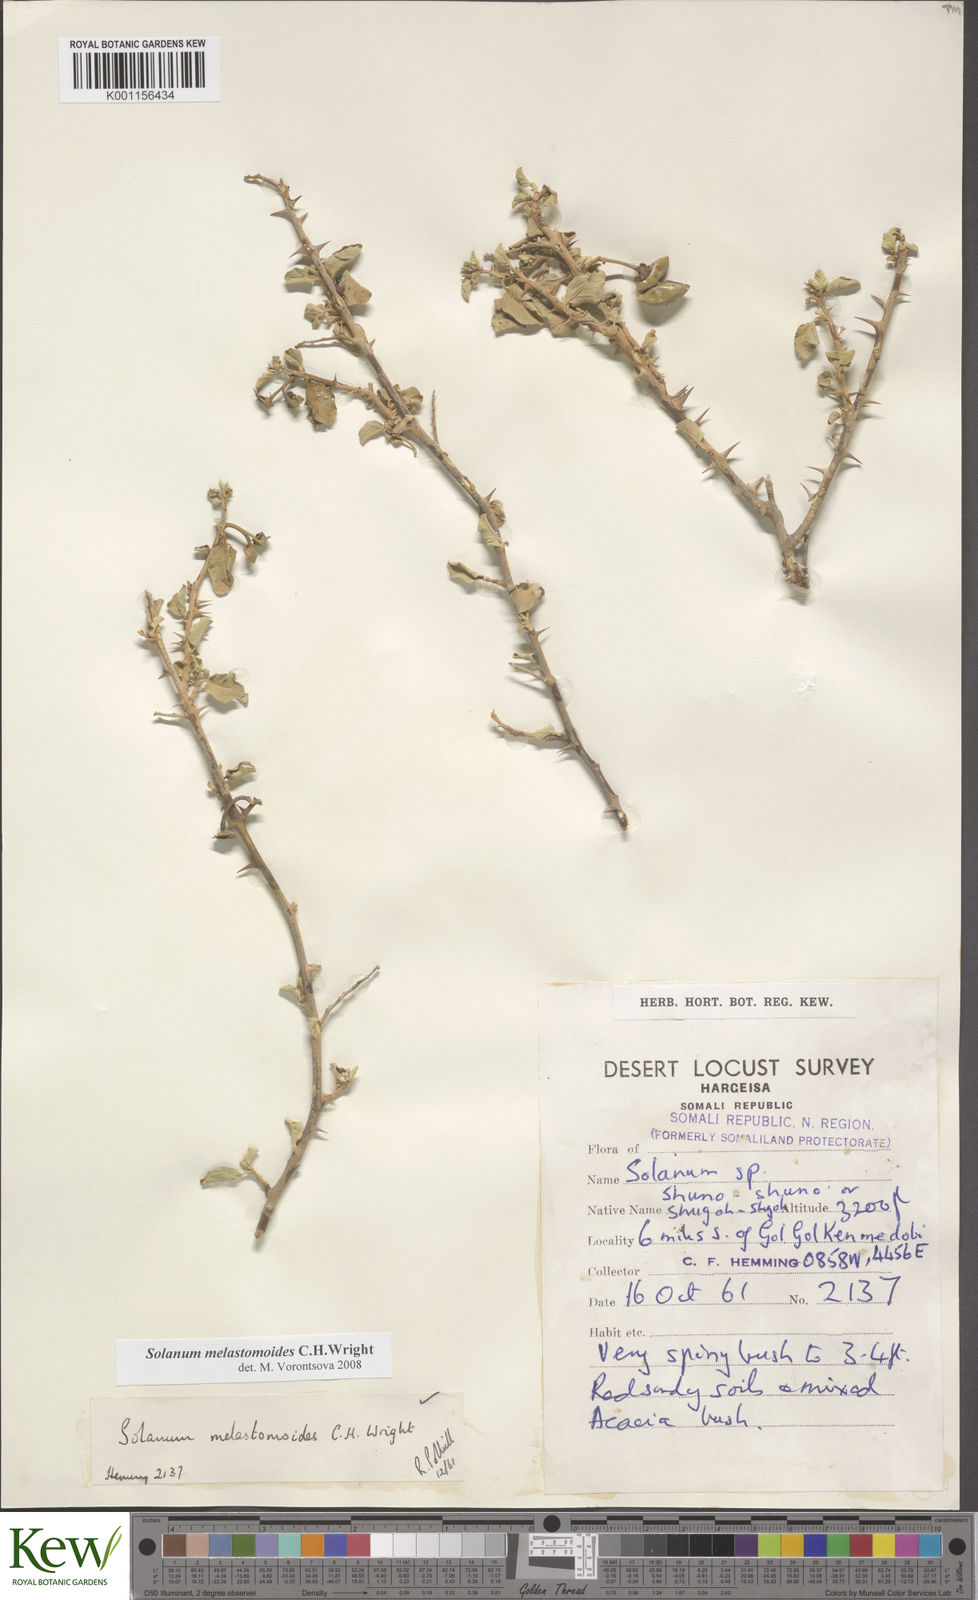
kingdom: Plantae
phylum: Tracheophyta
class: Magnoliopsida
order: Solanales
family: Solanaceae
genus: Solanum
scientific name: Solanum melastomoides
